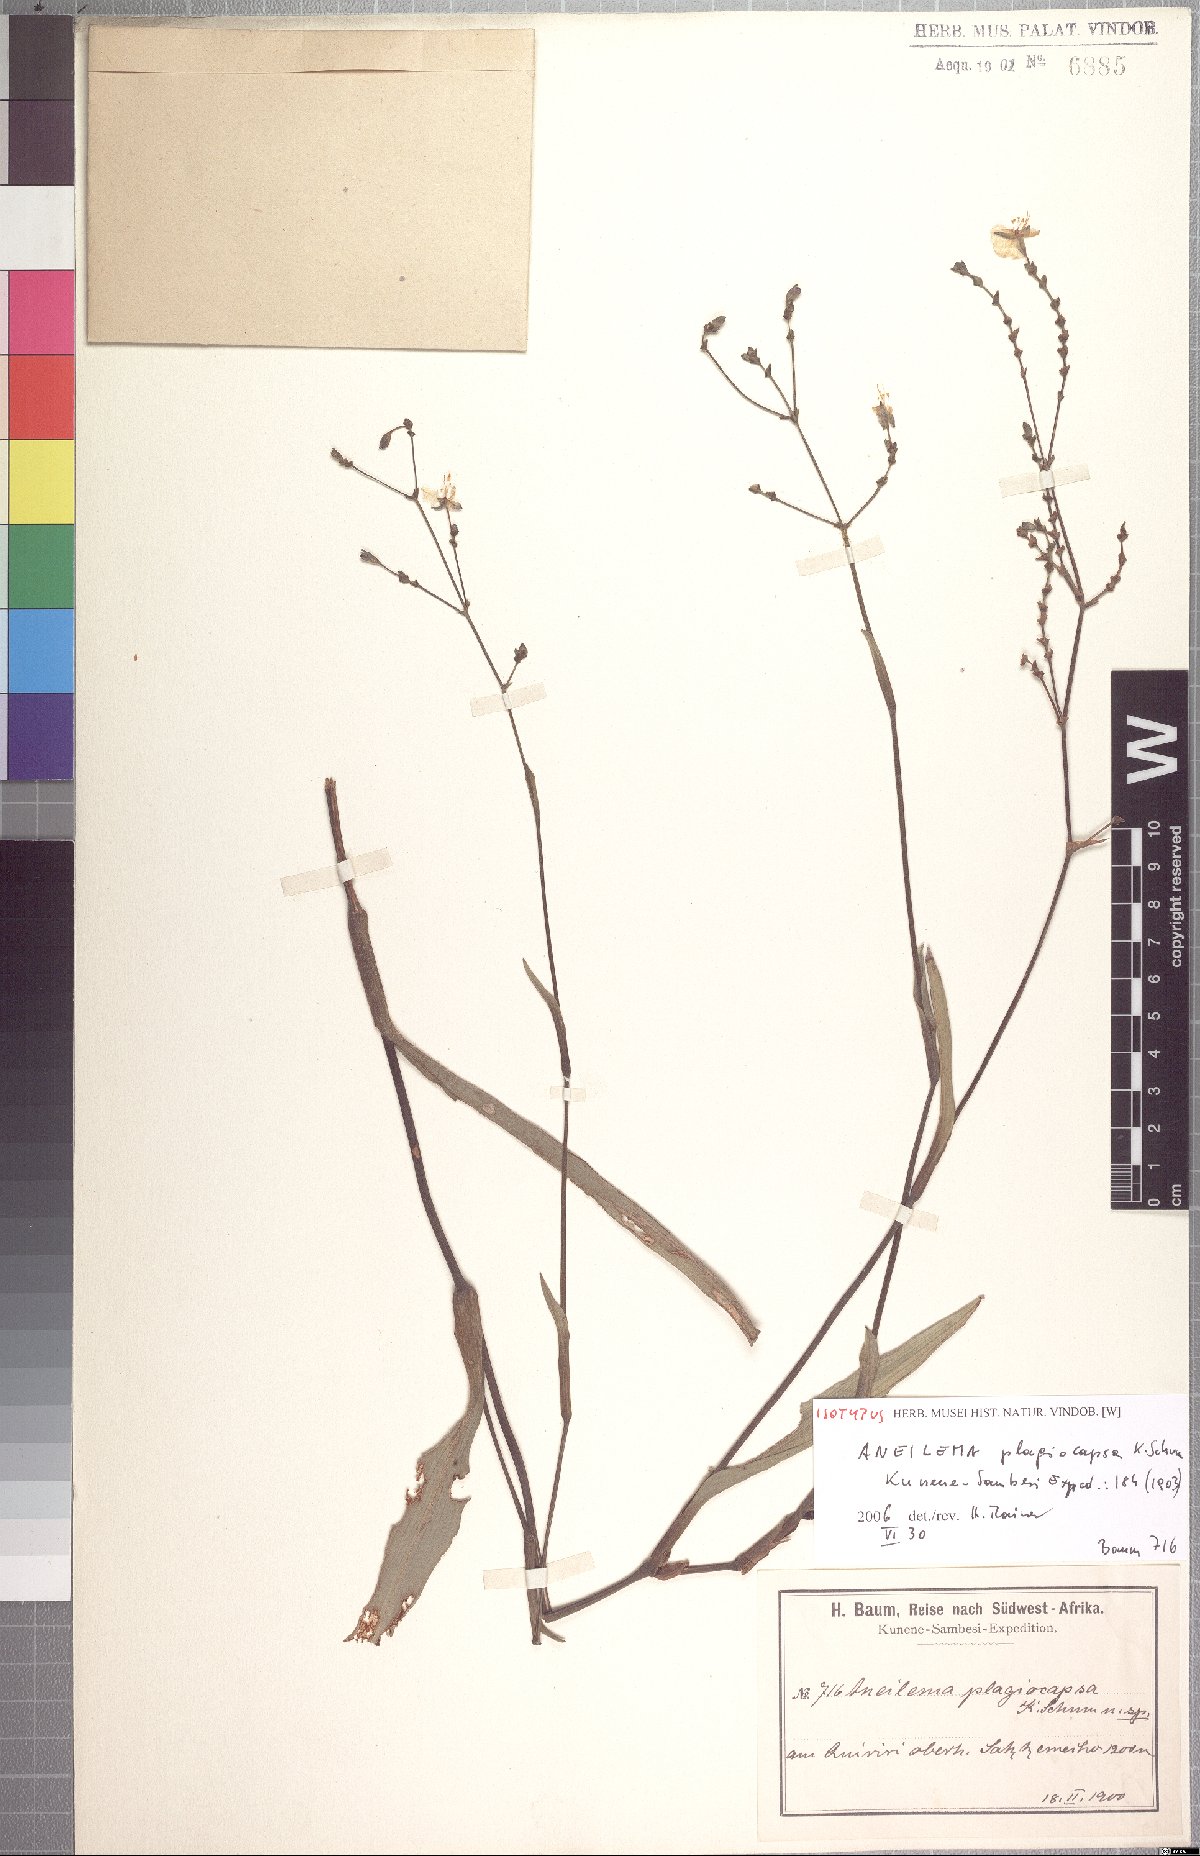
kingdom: Plantae
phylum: Tracheophyta
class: Liliopsida
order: Commelinales
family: Commelinaceae
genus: Aneilema
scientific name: Aneilema plagiocapsa
